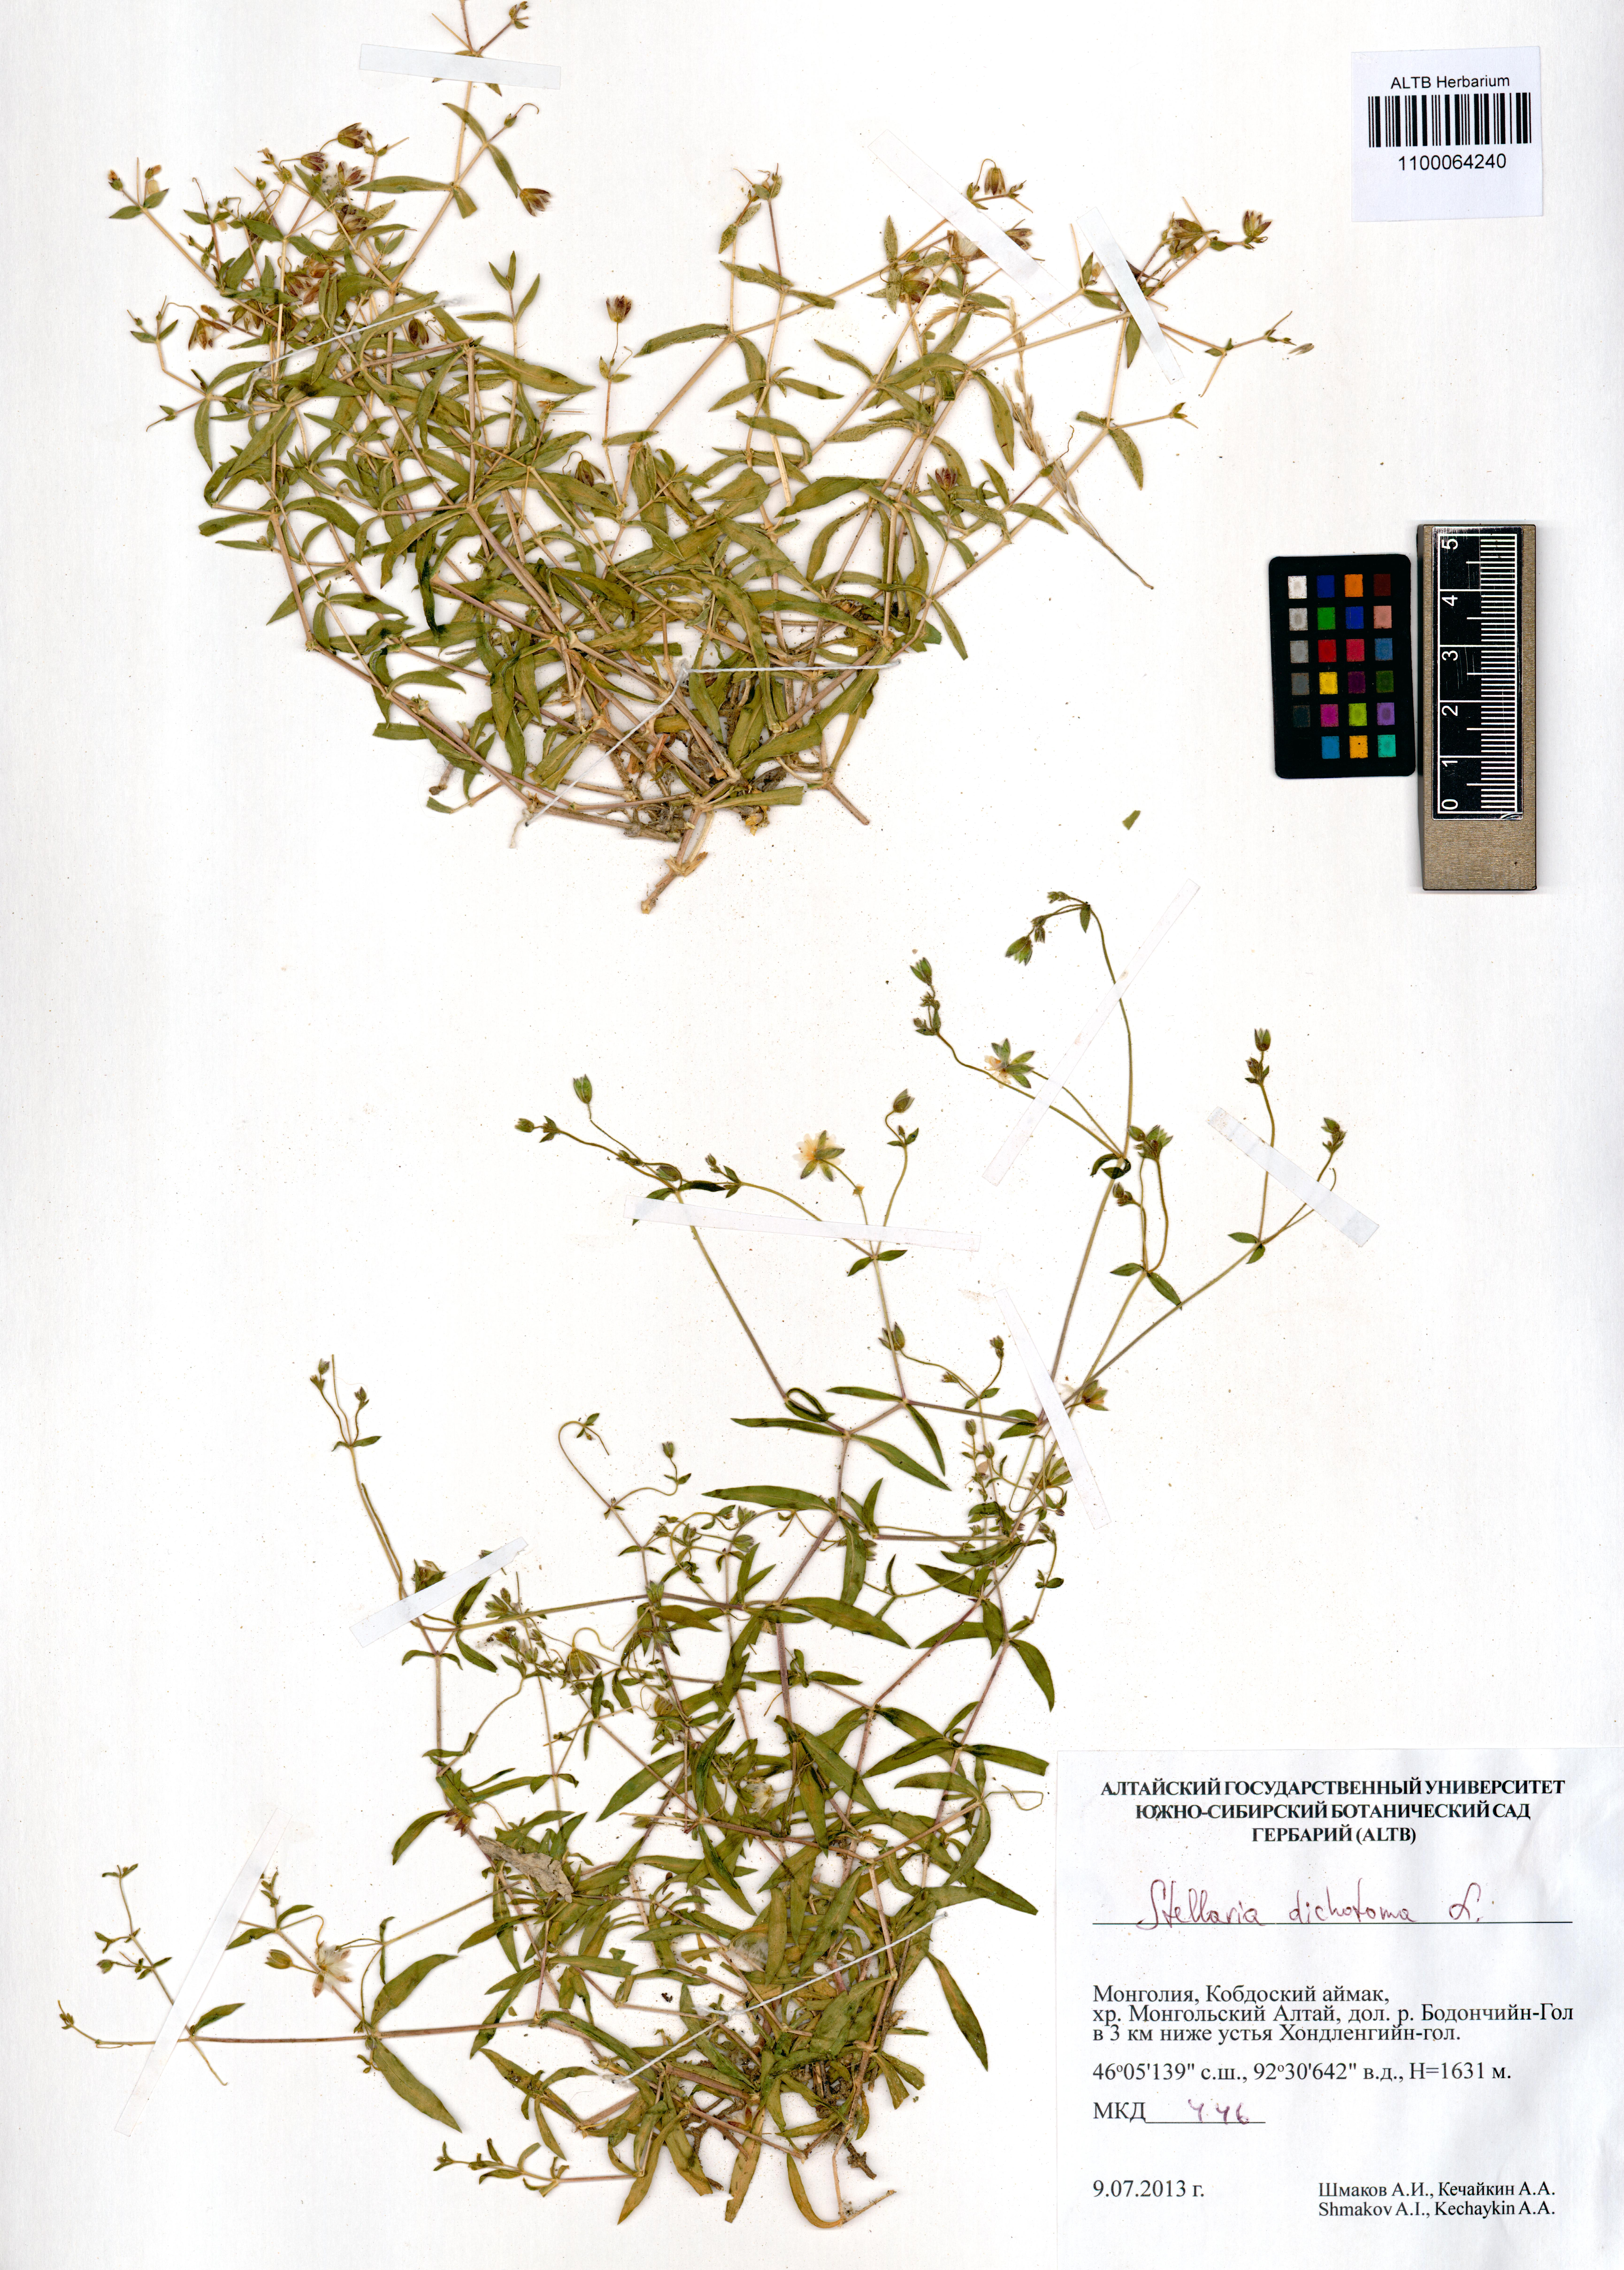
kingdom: Plantae
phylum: Tracheophyta
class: Magnoliopsida
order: Caryophyllales
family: Caryophyllaceae
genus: Mesostemma
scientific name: Mesostemma dichotomum
